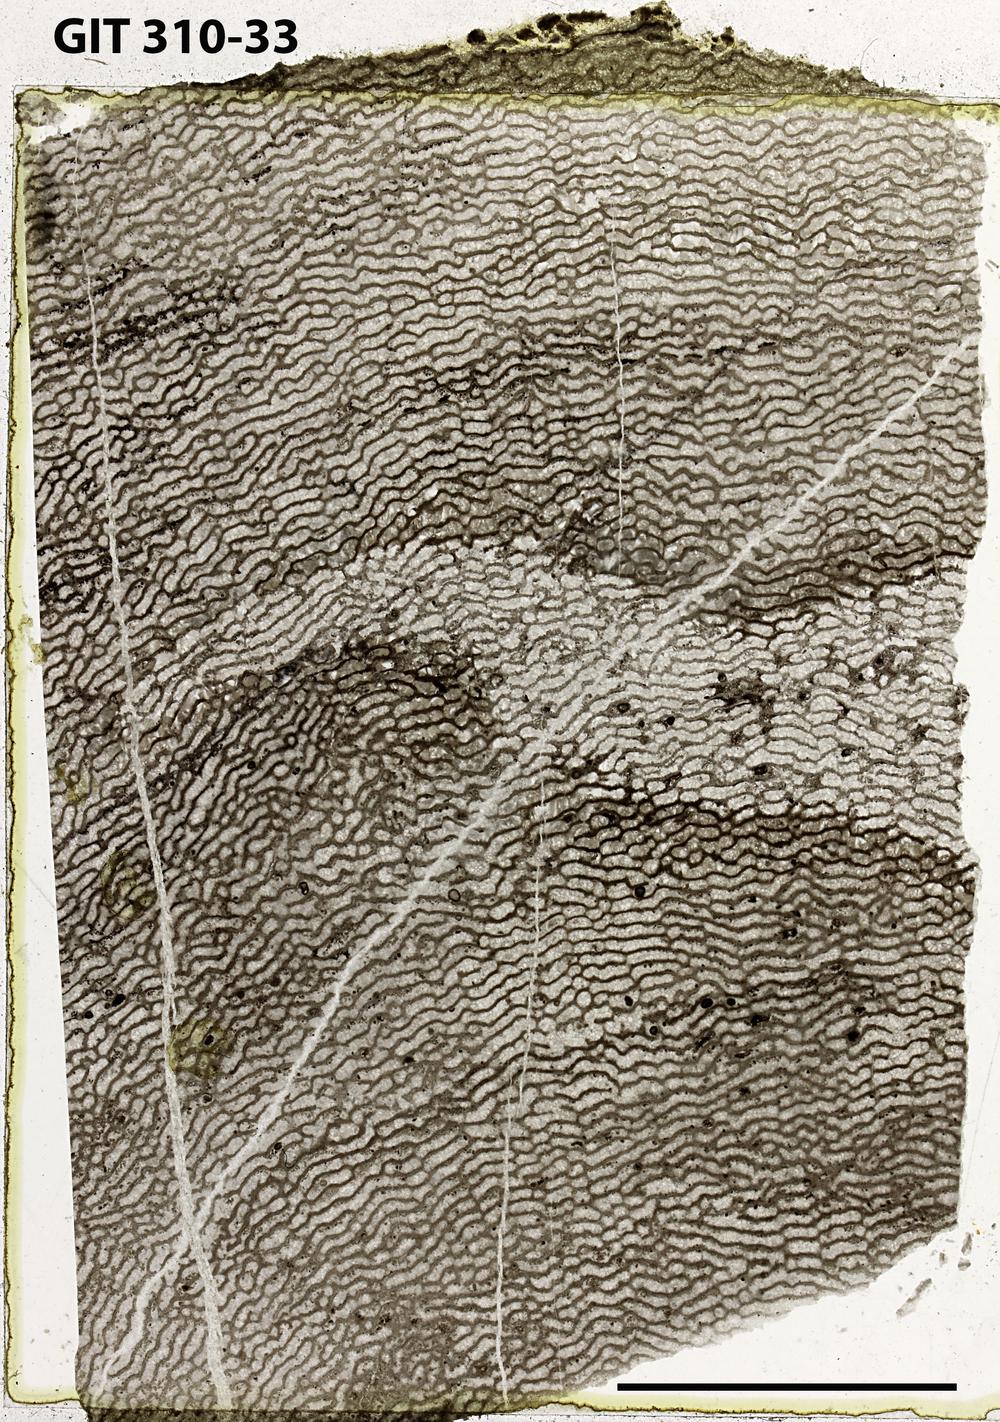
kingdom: Animalia
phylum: Porifera
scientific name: Porifera
